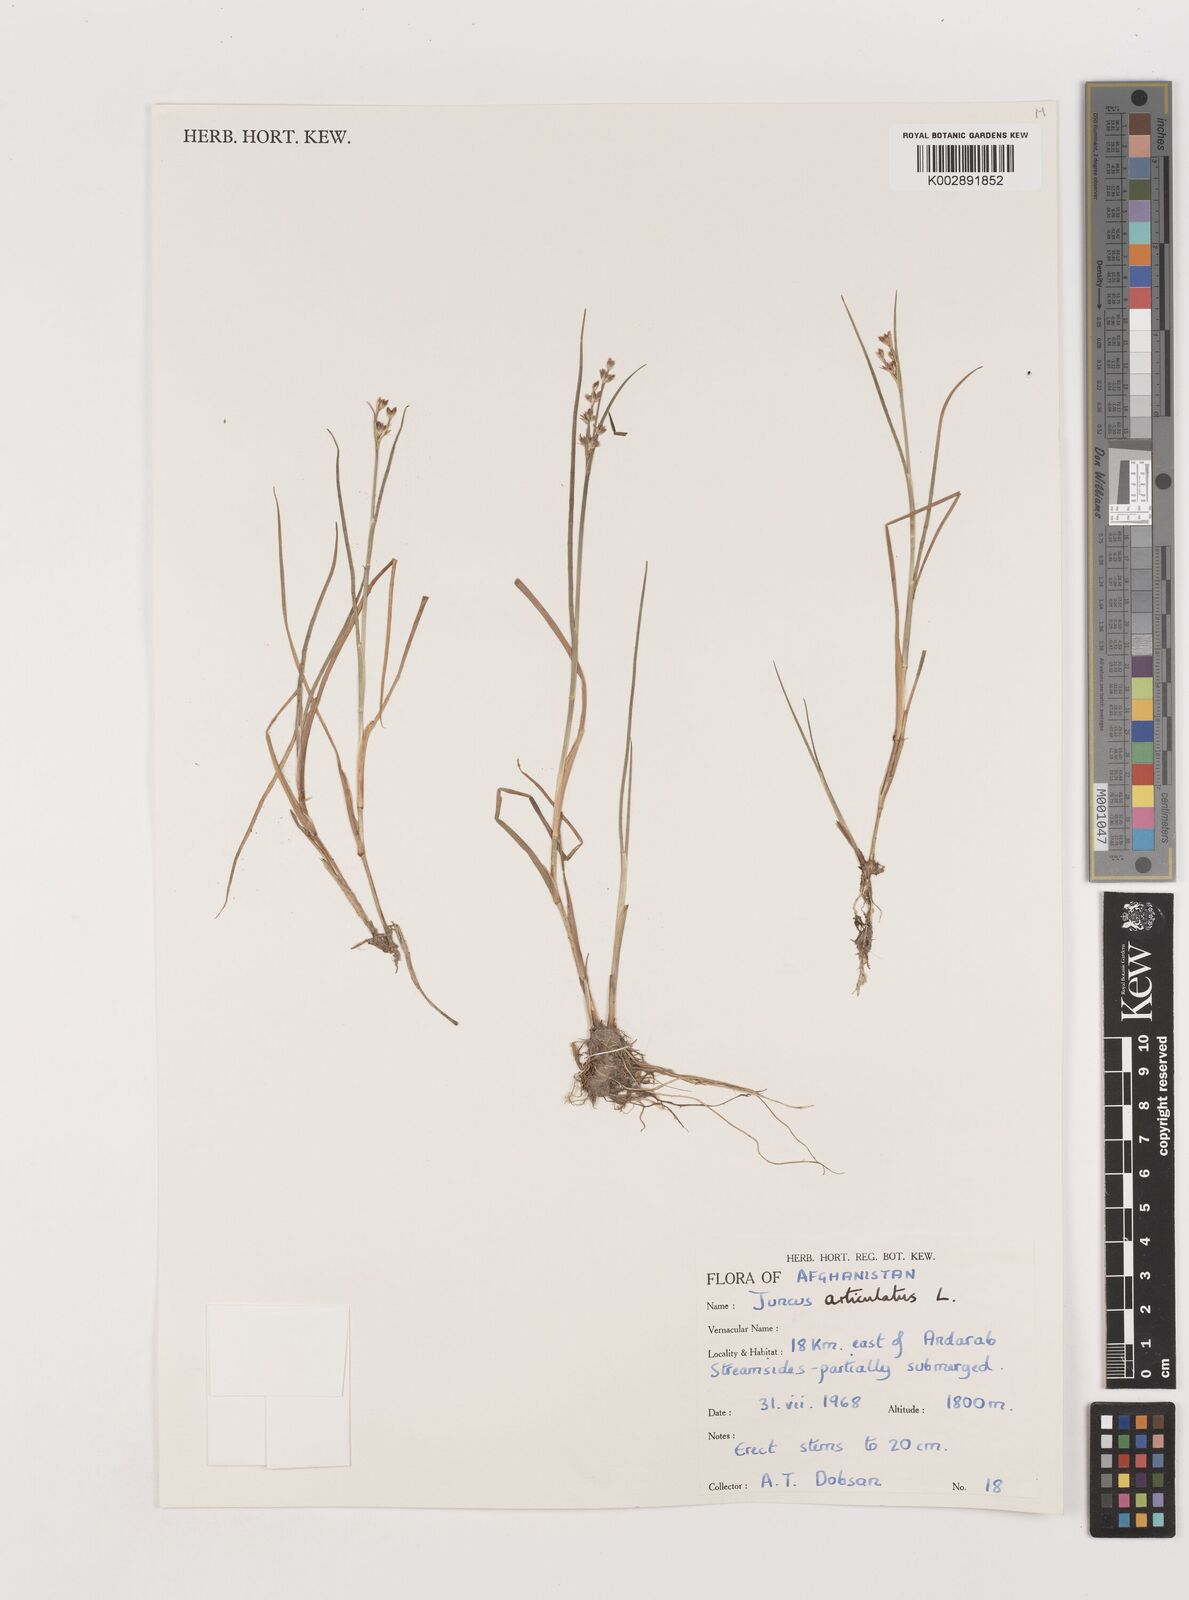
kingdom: Plantae
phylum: Tracheophyta
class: Liliopsida
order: Poales
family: Juncaceae
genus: Juncus
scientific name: Juncus articulatus
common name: Jointed rush
